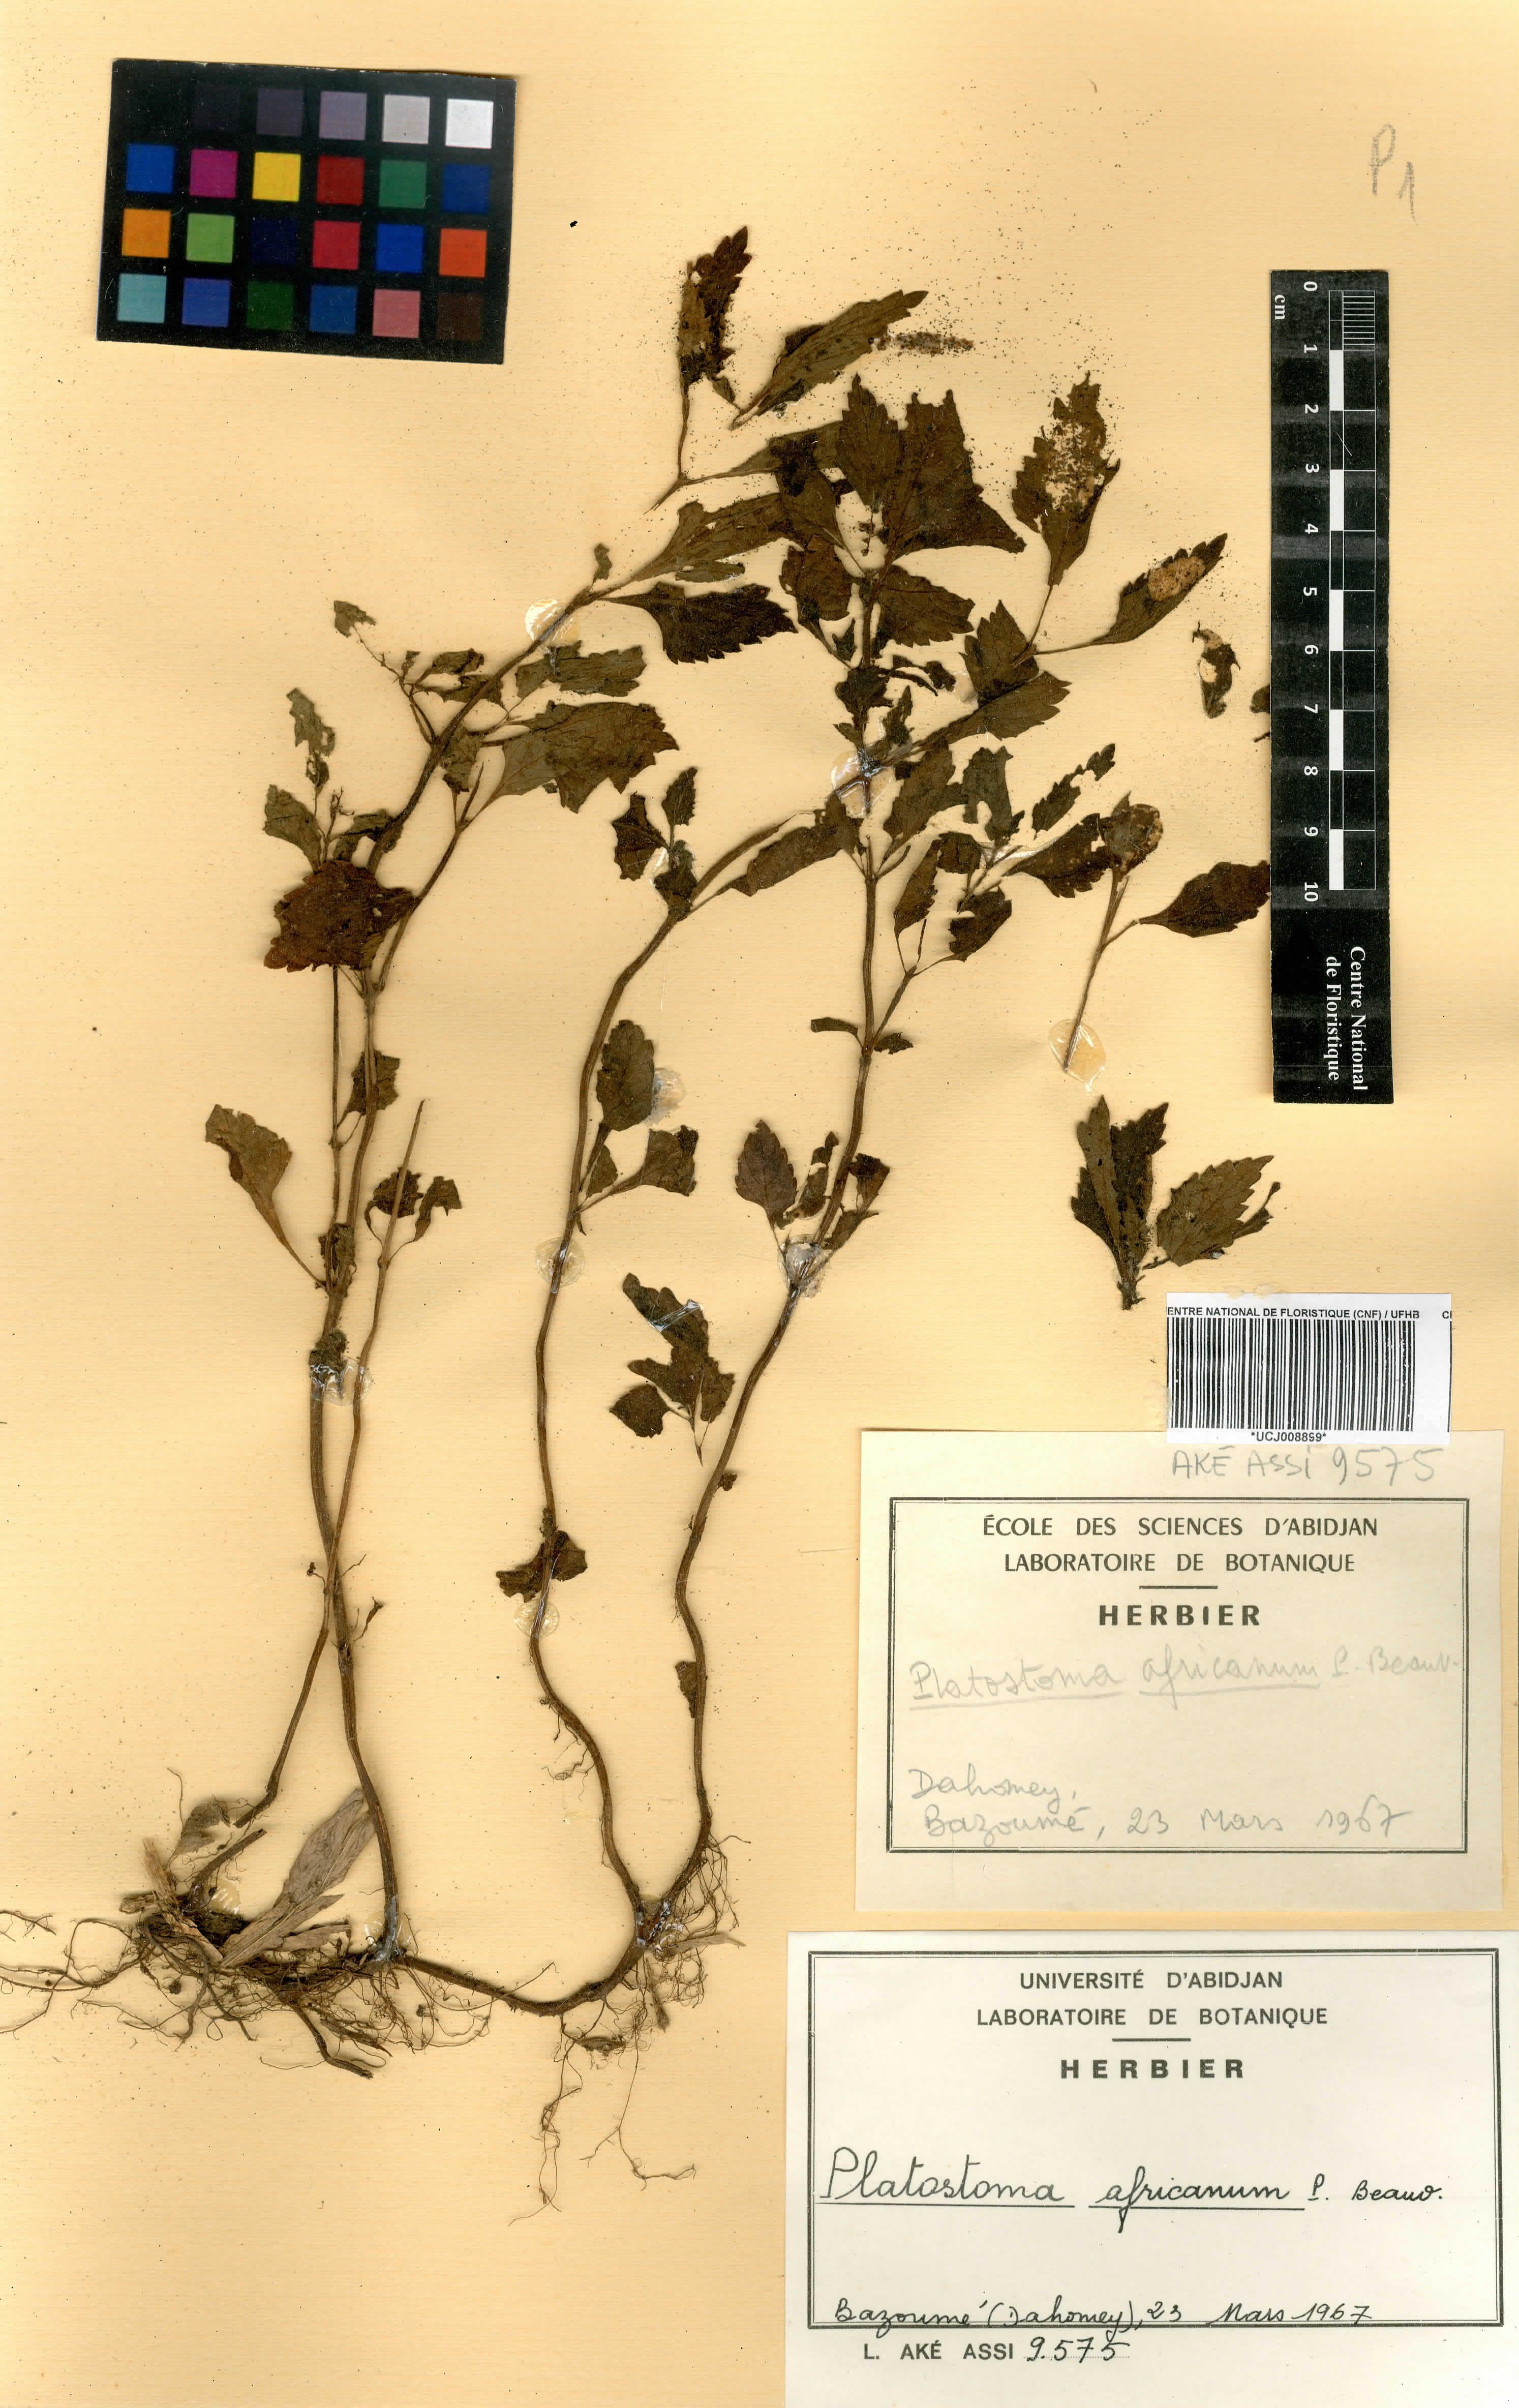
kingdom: Plantae
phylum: Tracheophyta
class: Magnoliopsida
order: Lamiales
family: Lamiaceae
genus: Platostoma
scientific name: Platostoma africanum
